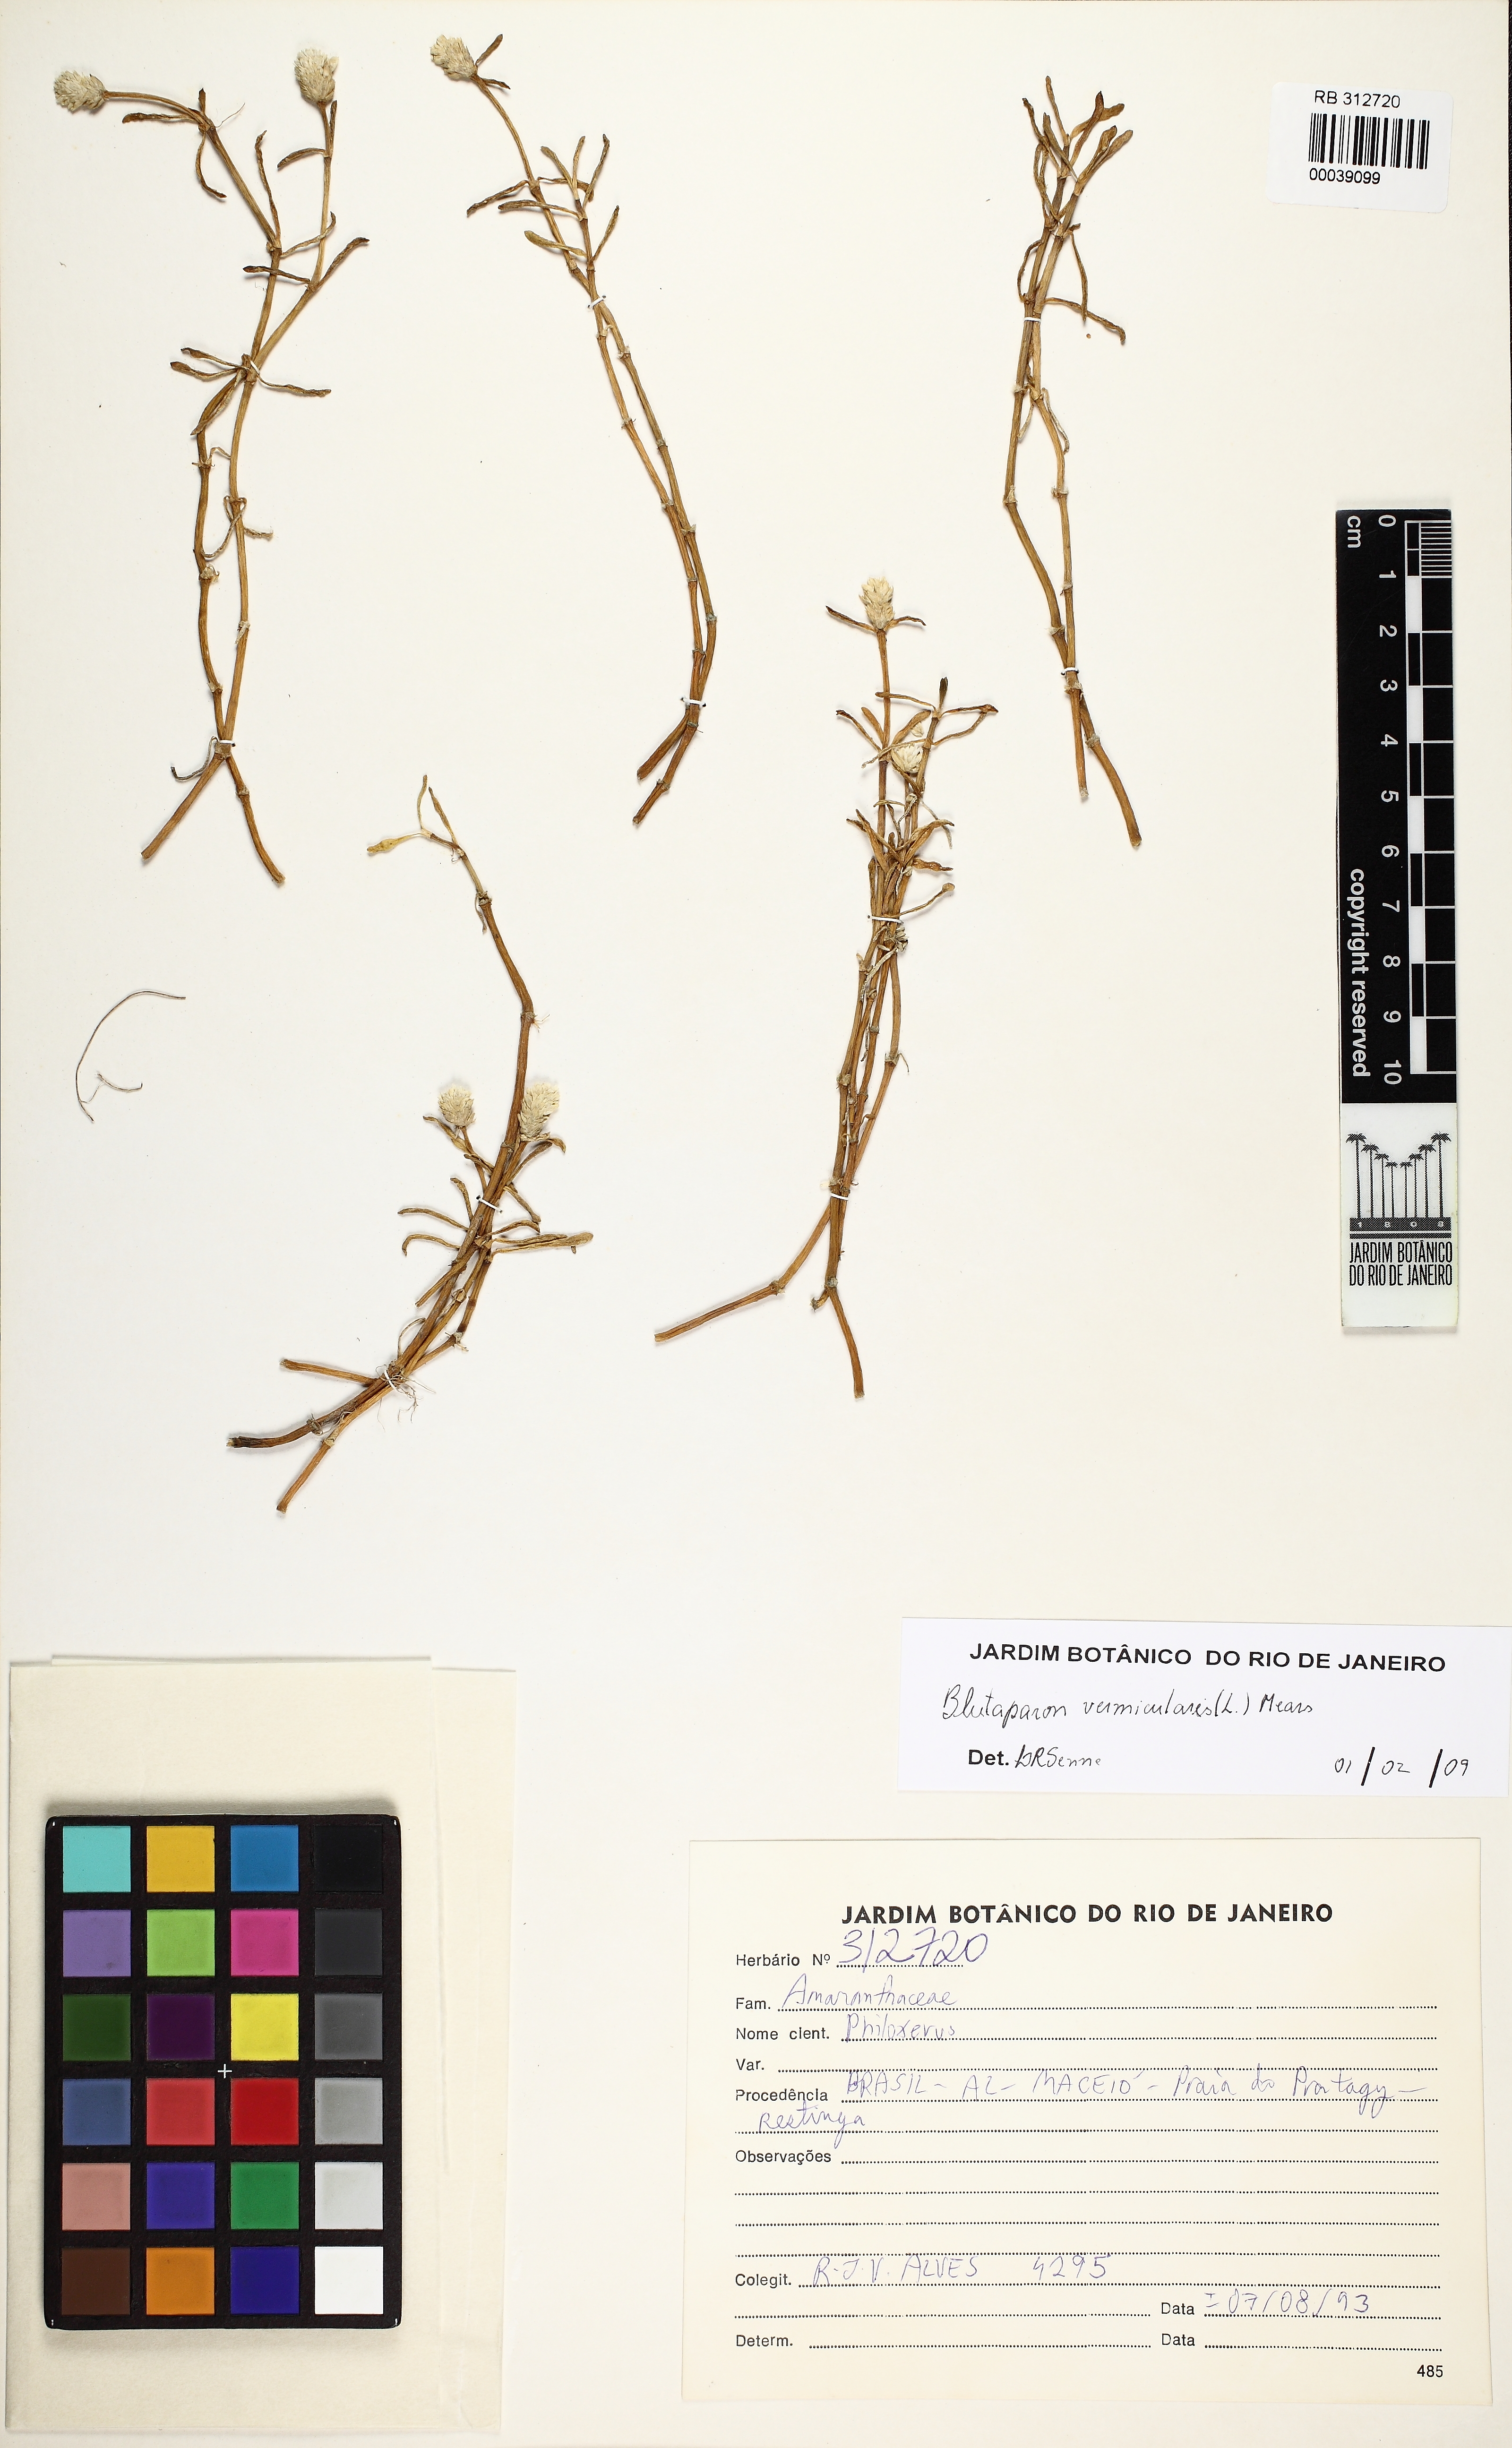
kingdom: Plantae
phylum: Tracheophyta
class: Magnoliopsida
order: Caryophyllales
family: Amaranthaceae
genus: Gomphrena
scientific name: Gomphrena vermicularis
